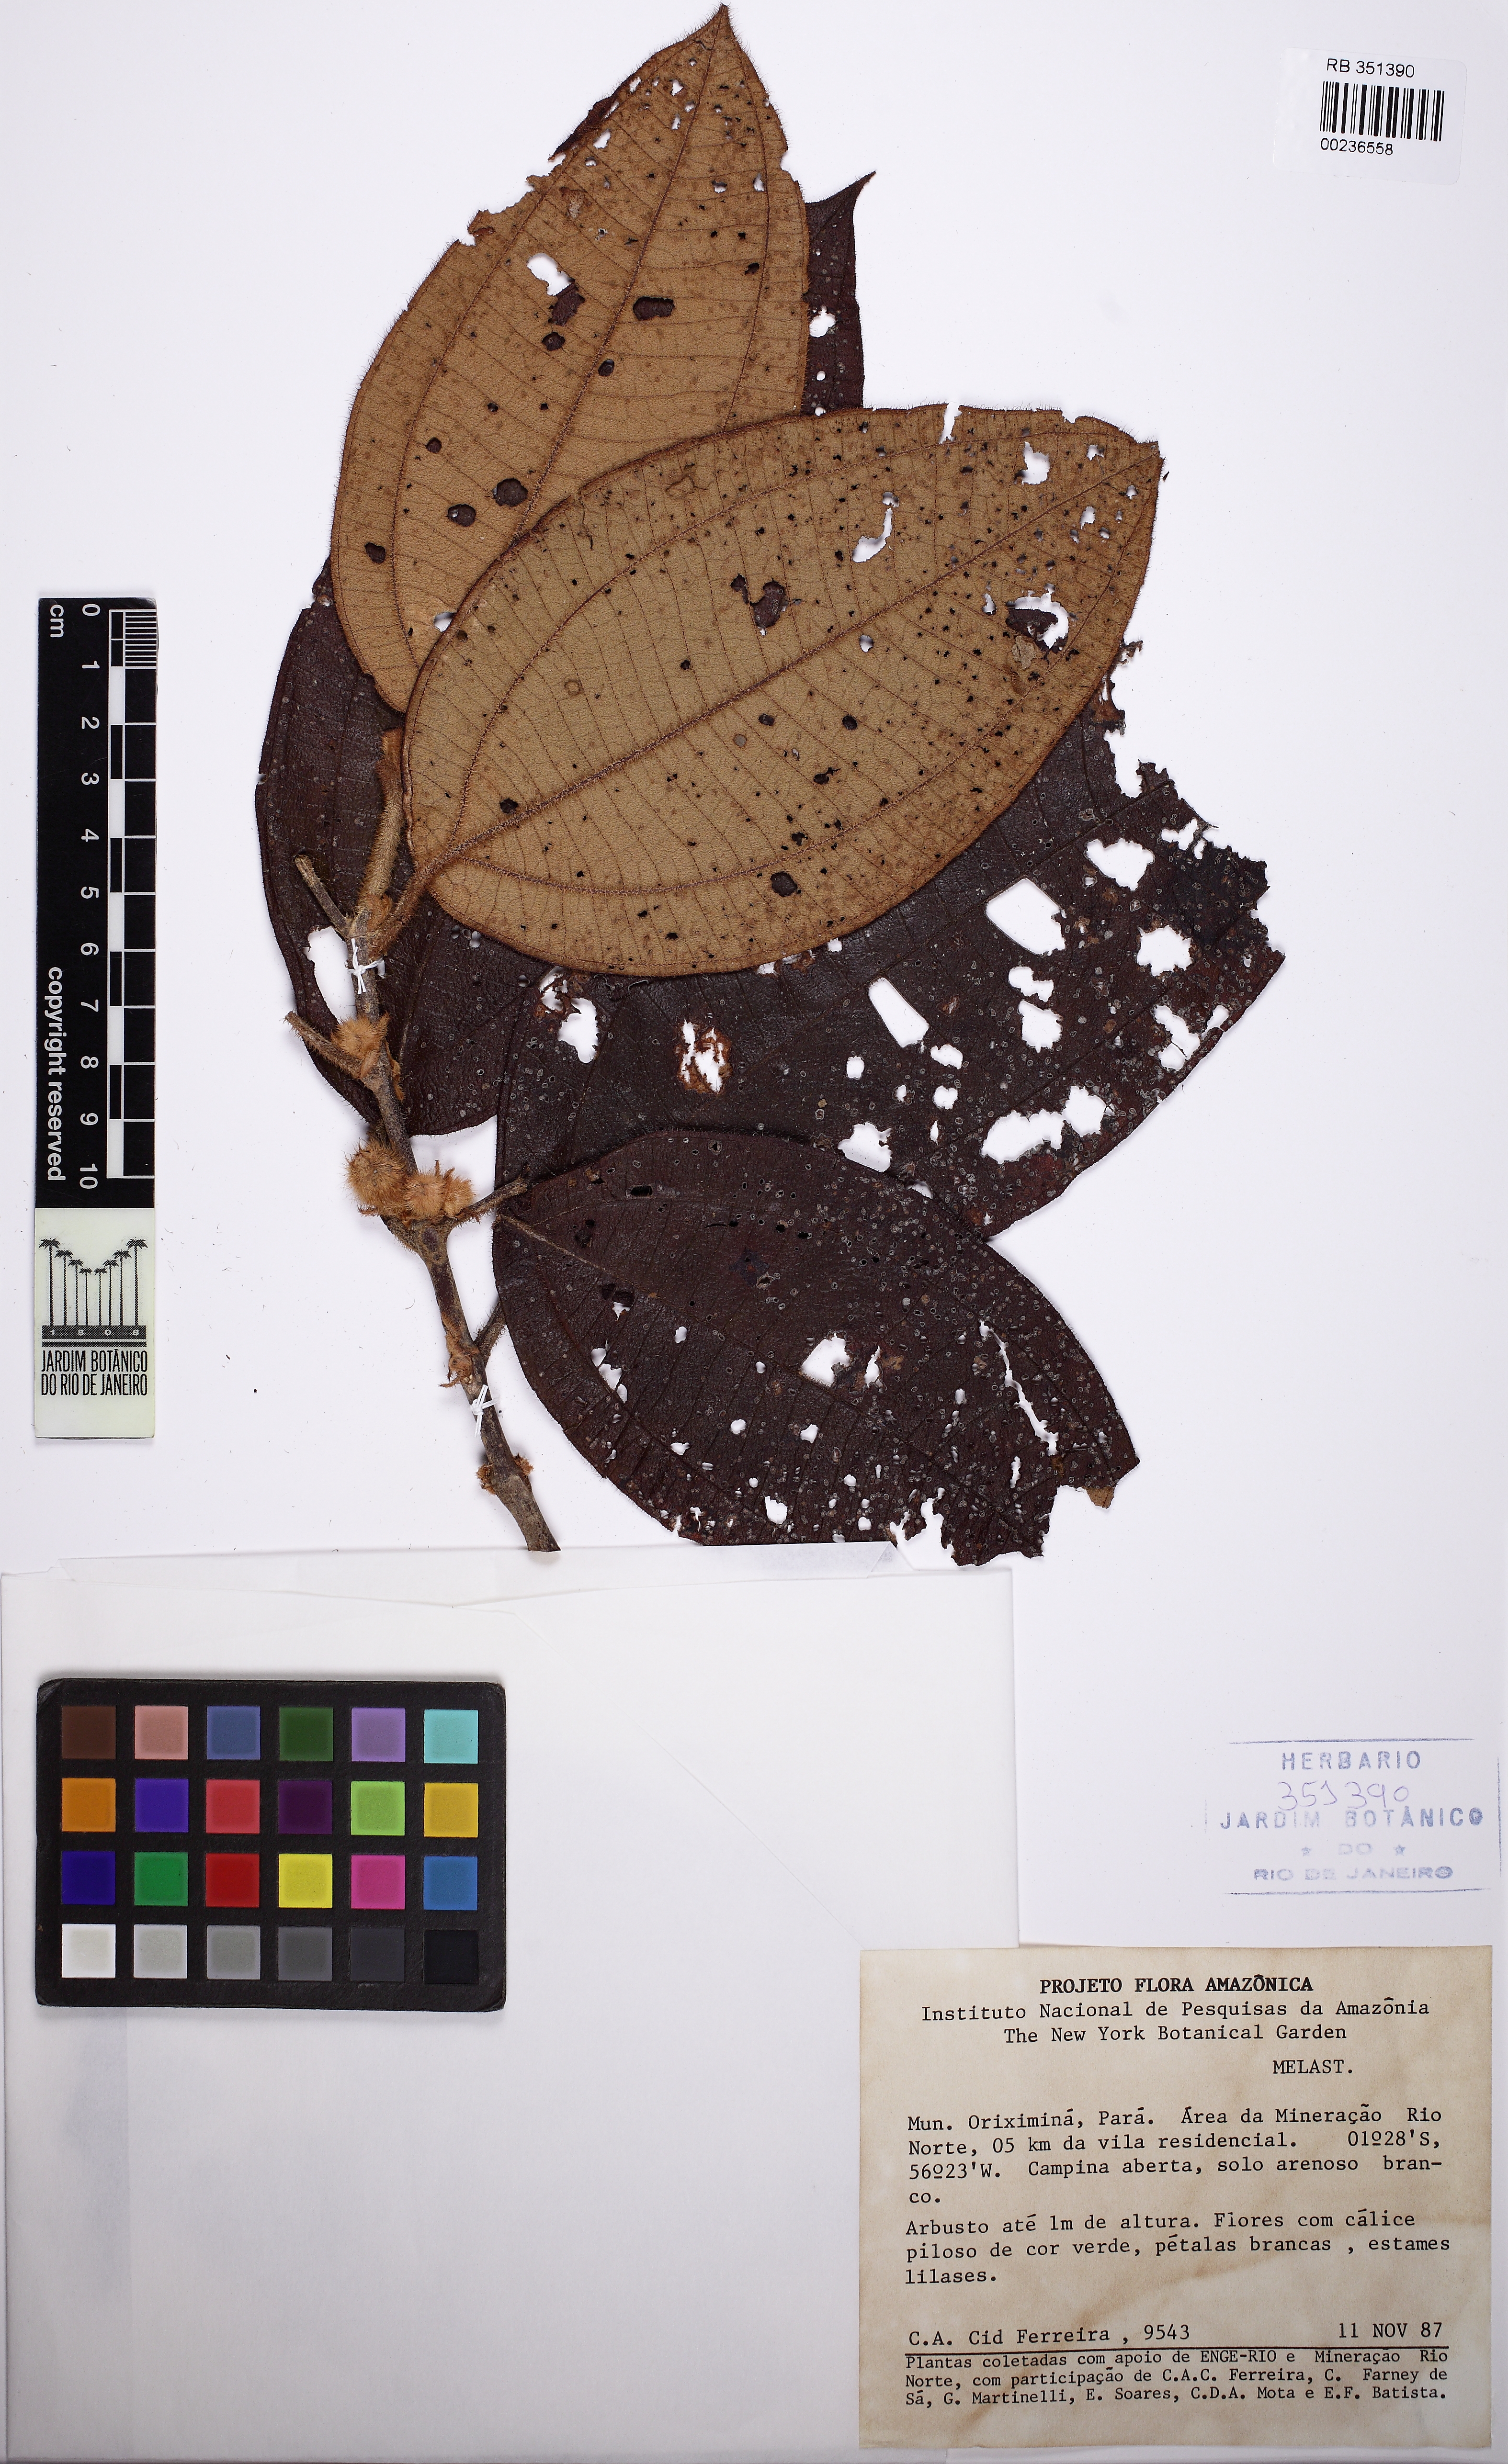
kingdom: Plantae
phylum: Tracheophyta
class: Magnoliopsida
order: Myrtales
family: Melastomataceae
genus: Henriettea
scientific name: Henriettea
